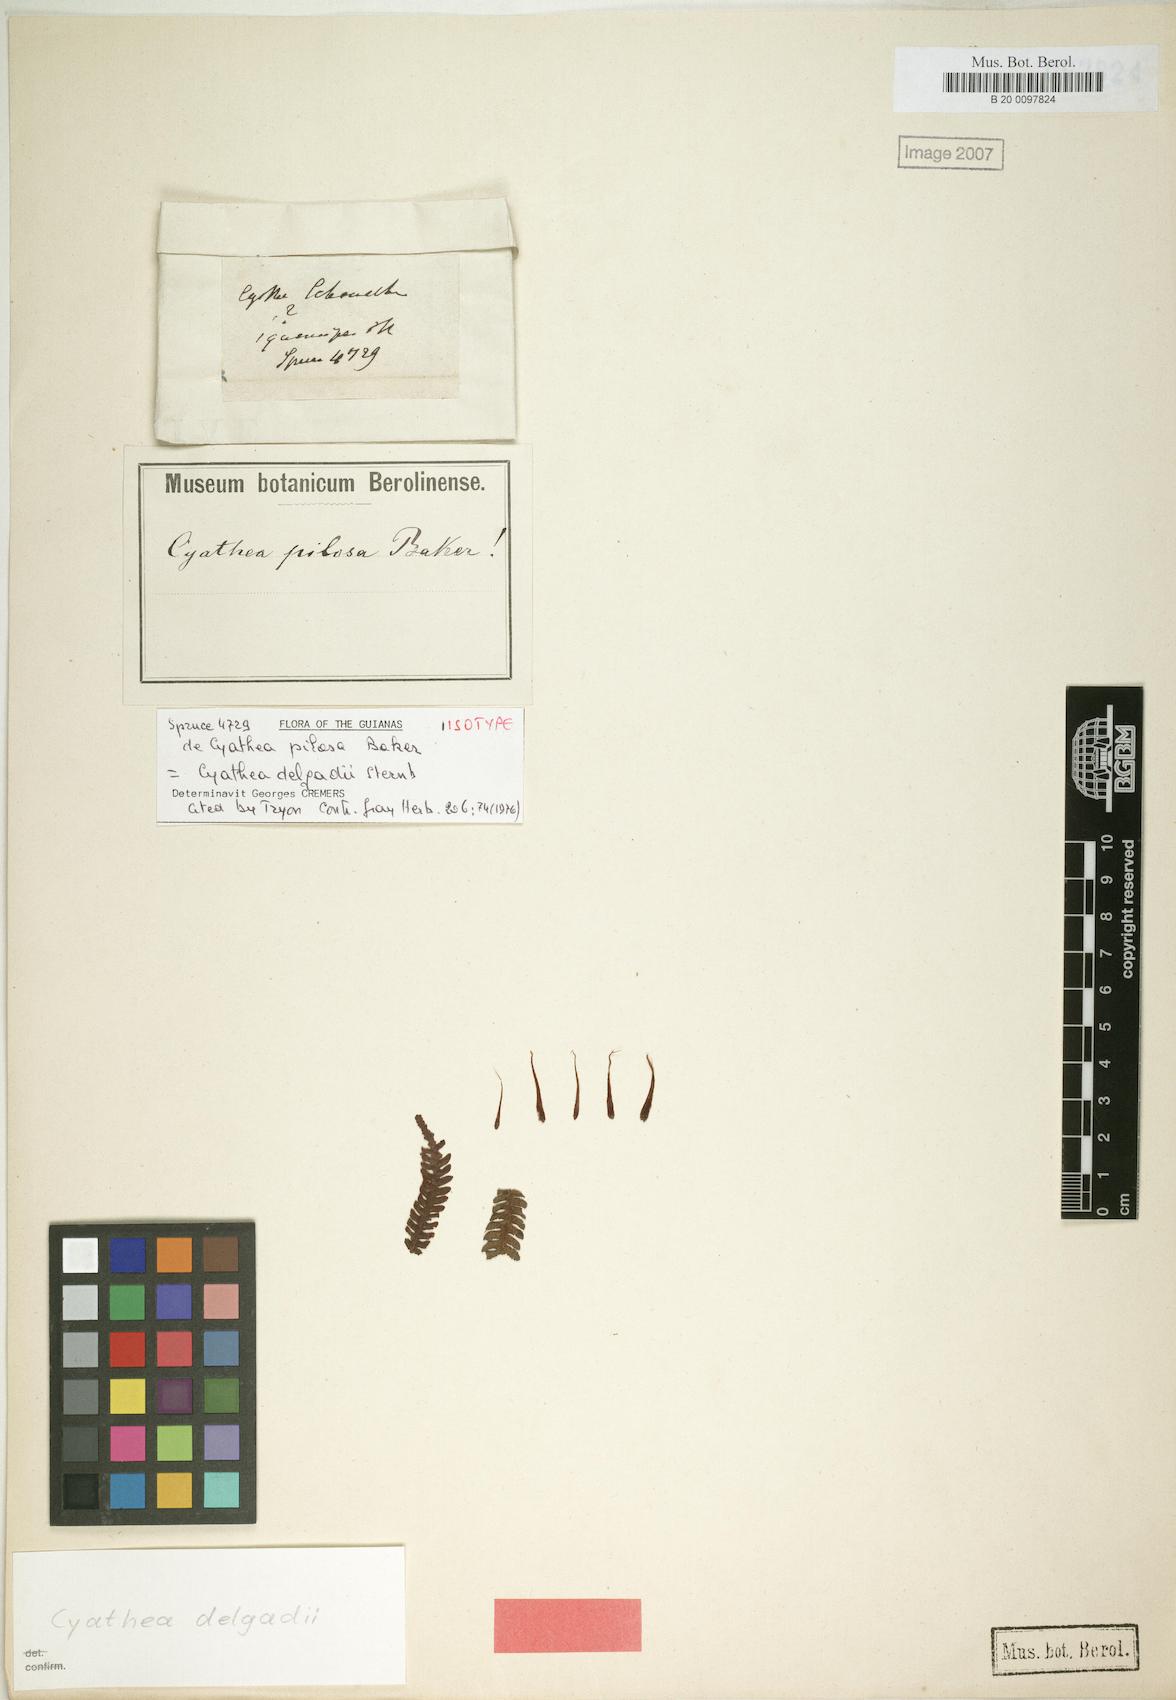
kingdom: Plantae
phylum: Tracheophyta
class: Polypodiopsida
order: Cyatheales
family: Cyatheaceae
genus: Cyathea
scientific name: Cyathea delgadii
